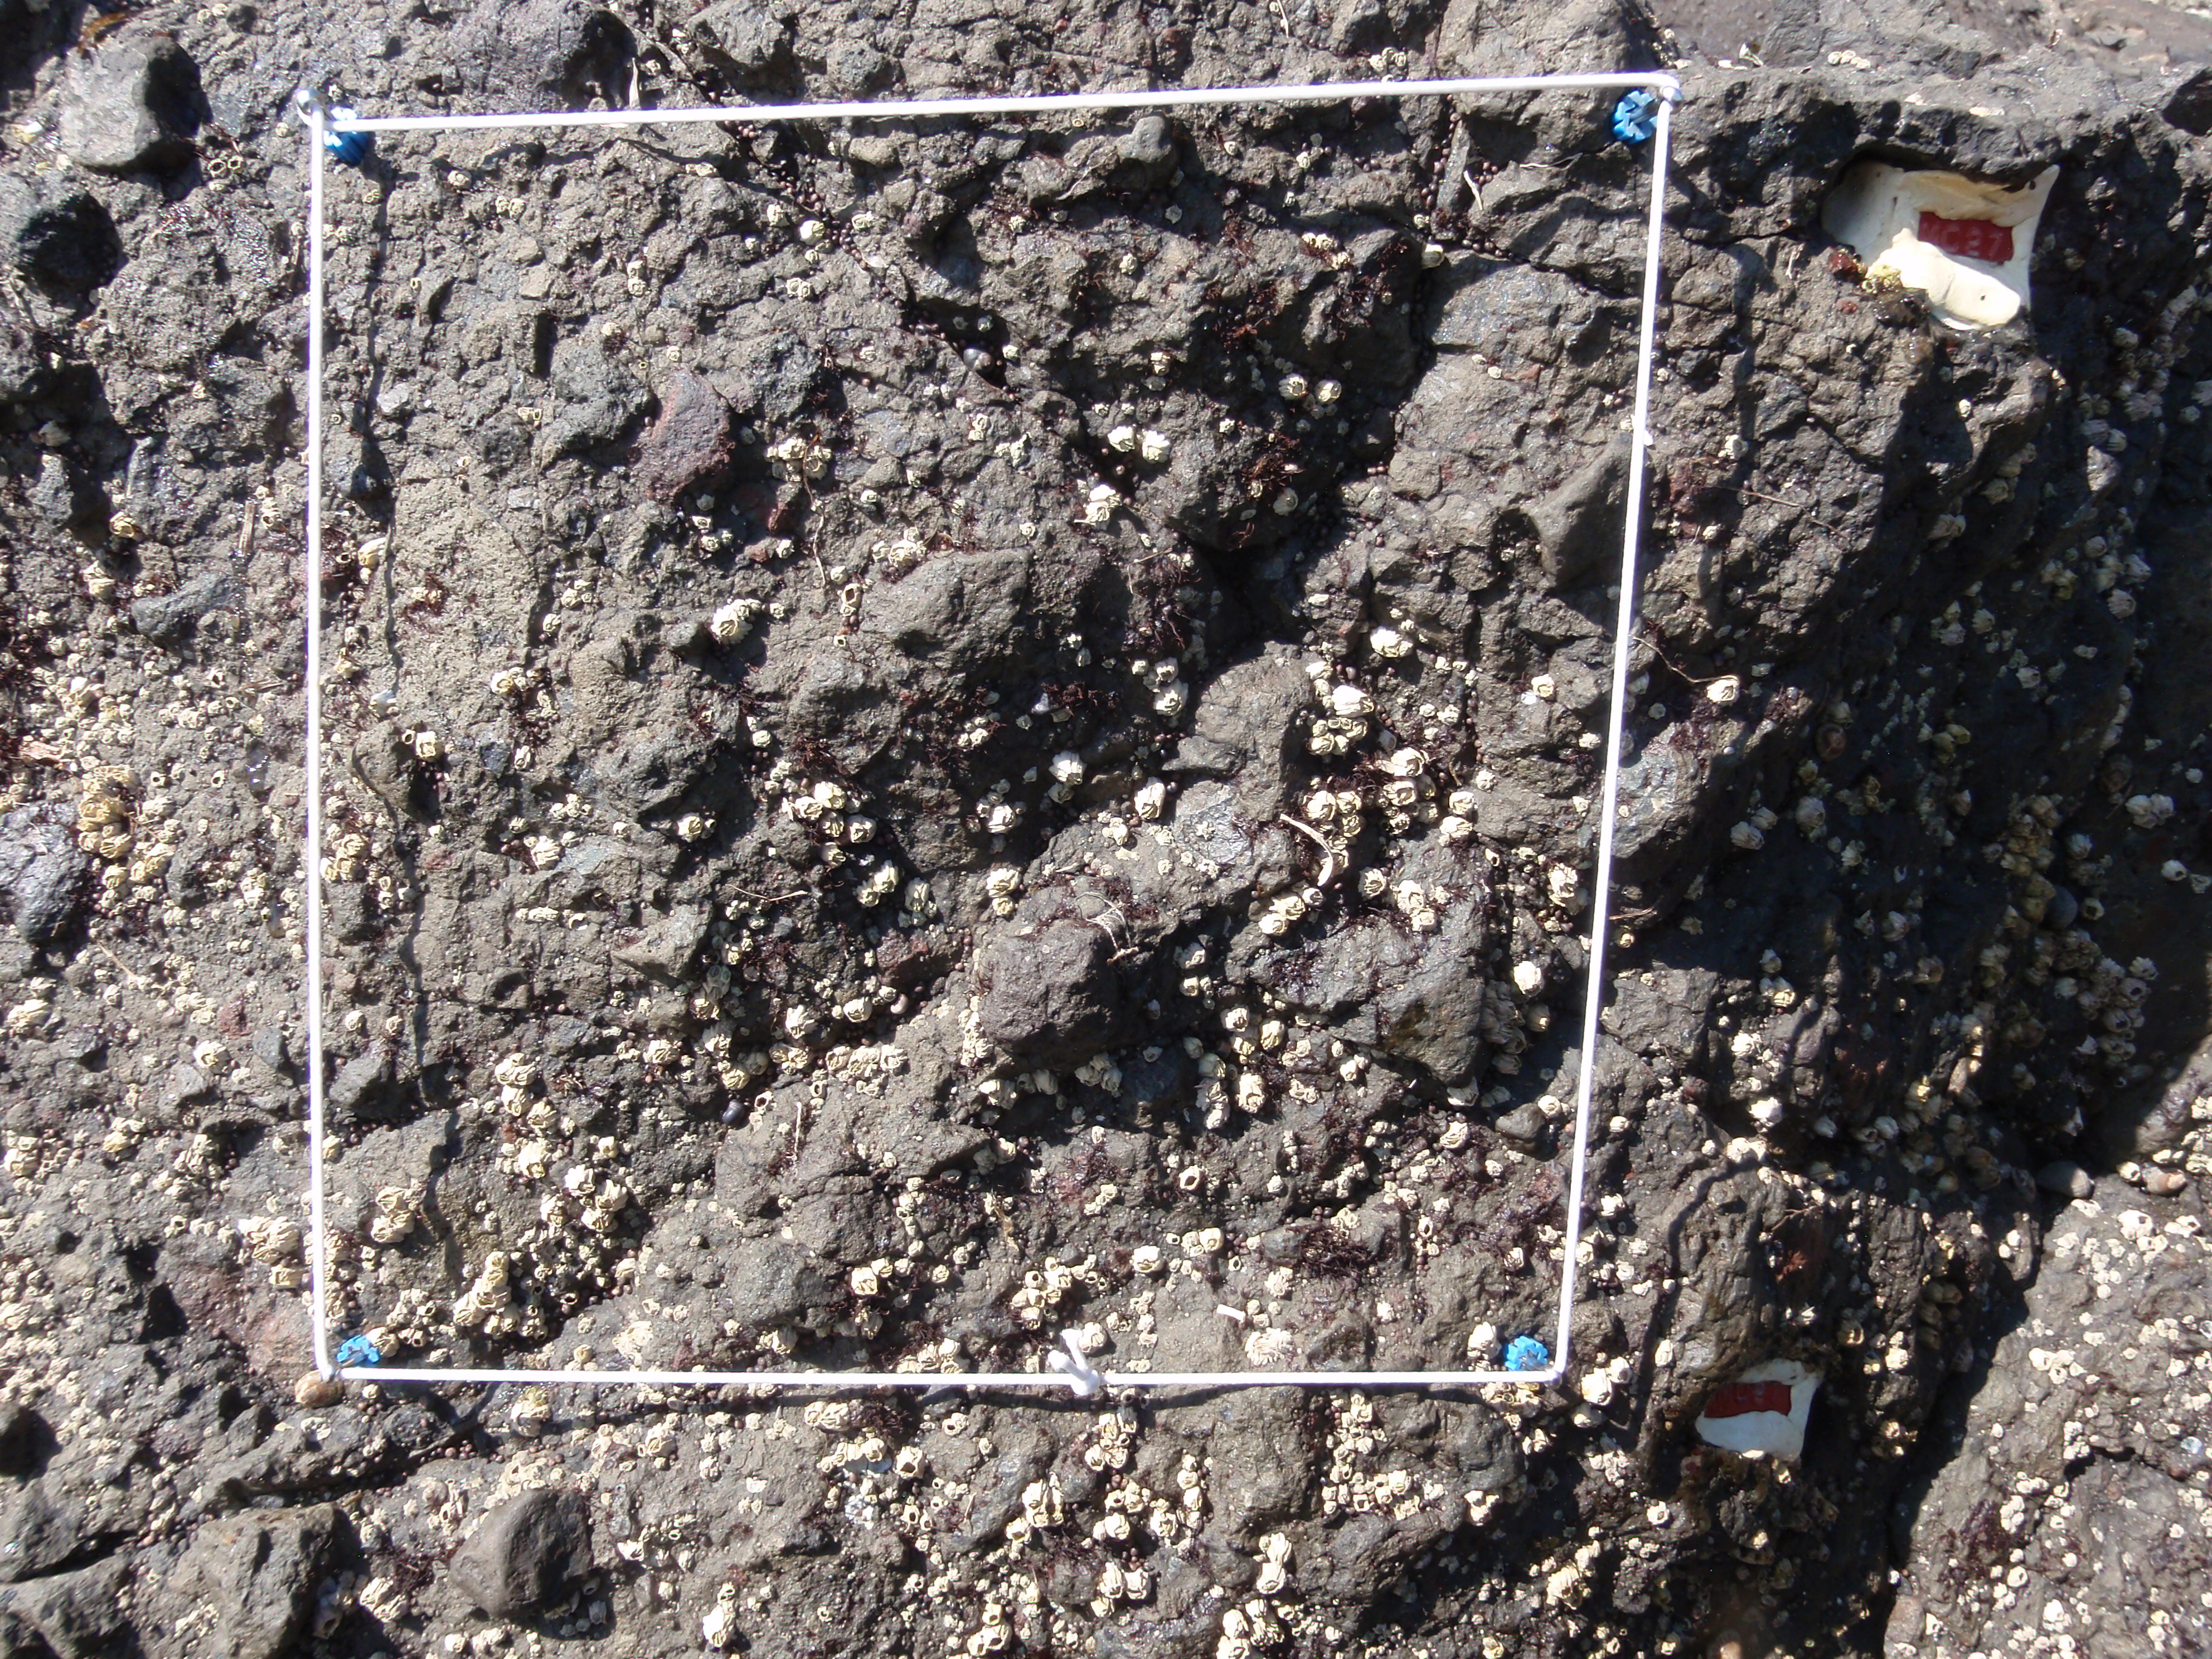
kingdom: Plantae
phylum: Rhodophyta
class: Florideophyceae
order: Gigartinales
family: Endocladiaceae
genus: Gloiopeltis
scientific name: Gloiopeltis furcata
